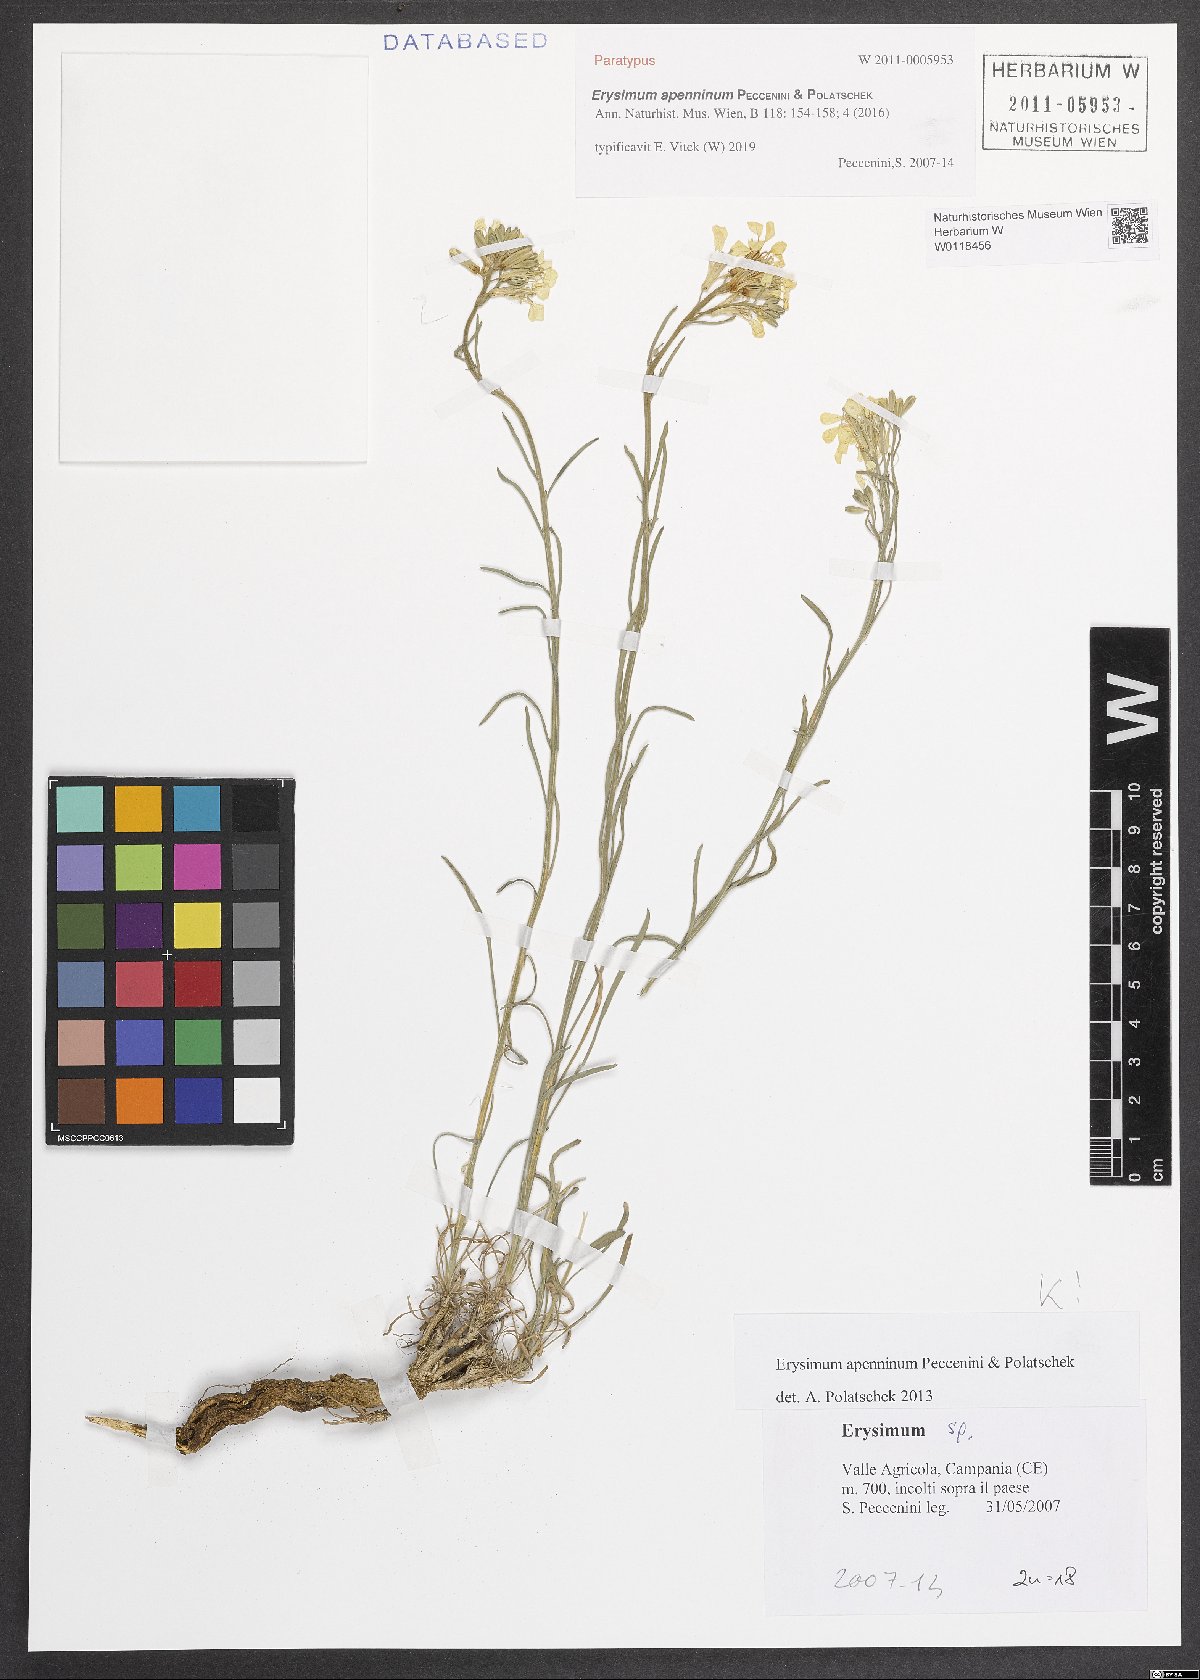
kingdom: Plantae
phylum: Tracheophyta
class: Magnoliopsida
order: Brassicales
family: Brassicaceae
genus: Erysimum
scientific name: Erysimum apenninum
